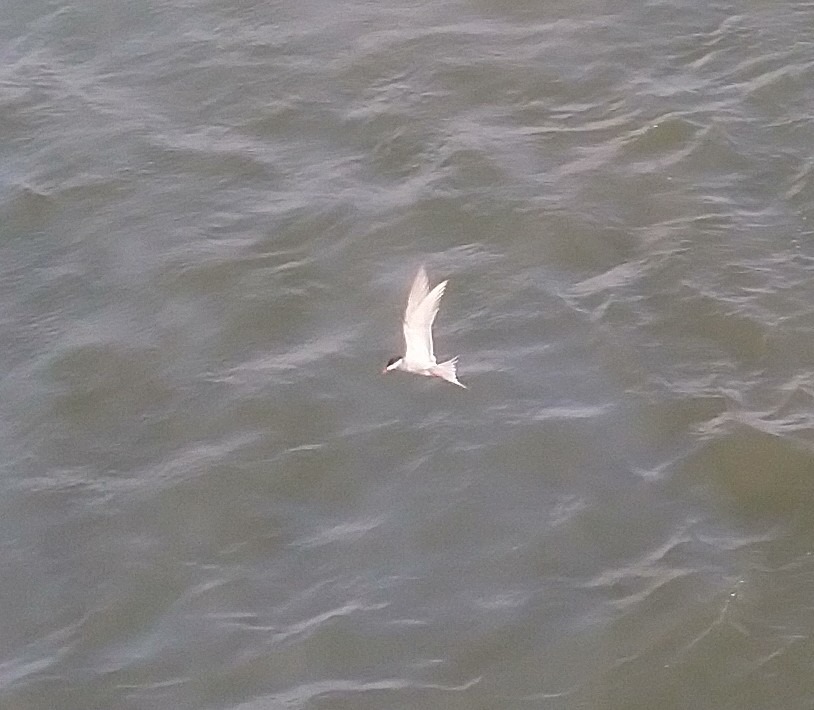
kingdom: Animalia
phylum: Chordata
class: Aves
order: Charadriiformes
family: Laridae
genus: Sterna
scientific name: Sterna hirundo
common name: Fjordterne
